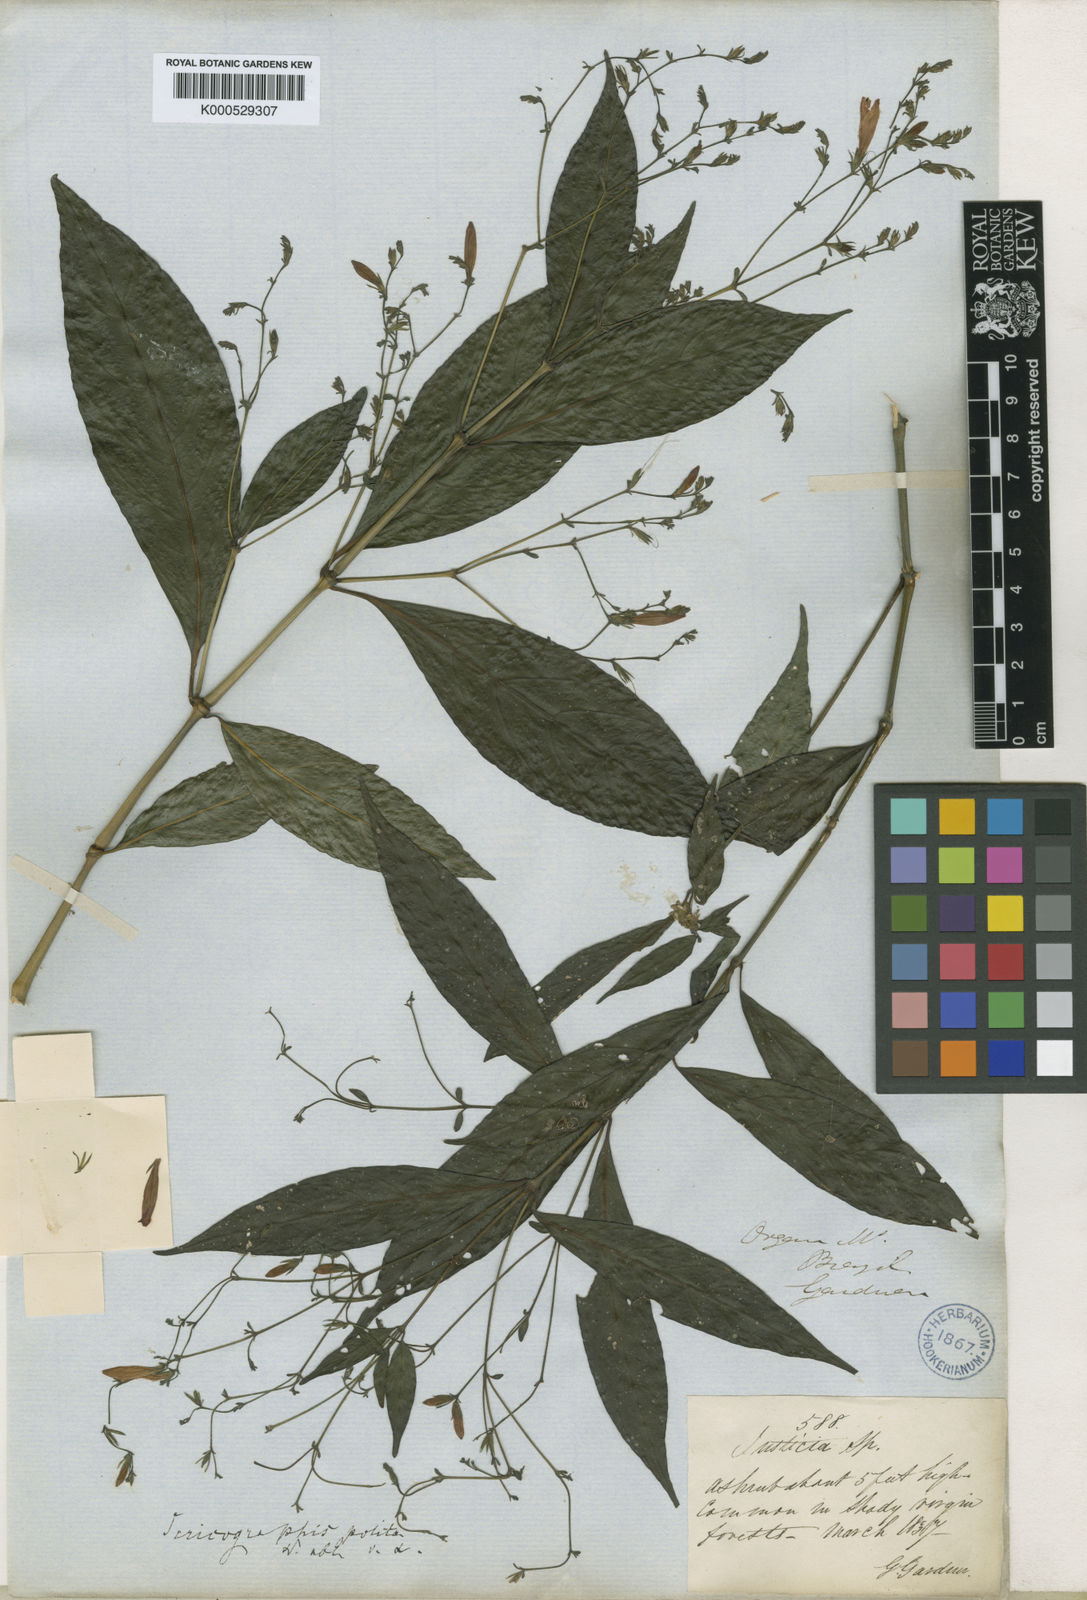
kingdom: Plantae
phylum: Tracheophyta
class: Magnoliopsida
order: Lamiales
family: Acanthaceae
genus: Justicia
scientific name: Justicia polita
